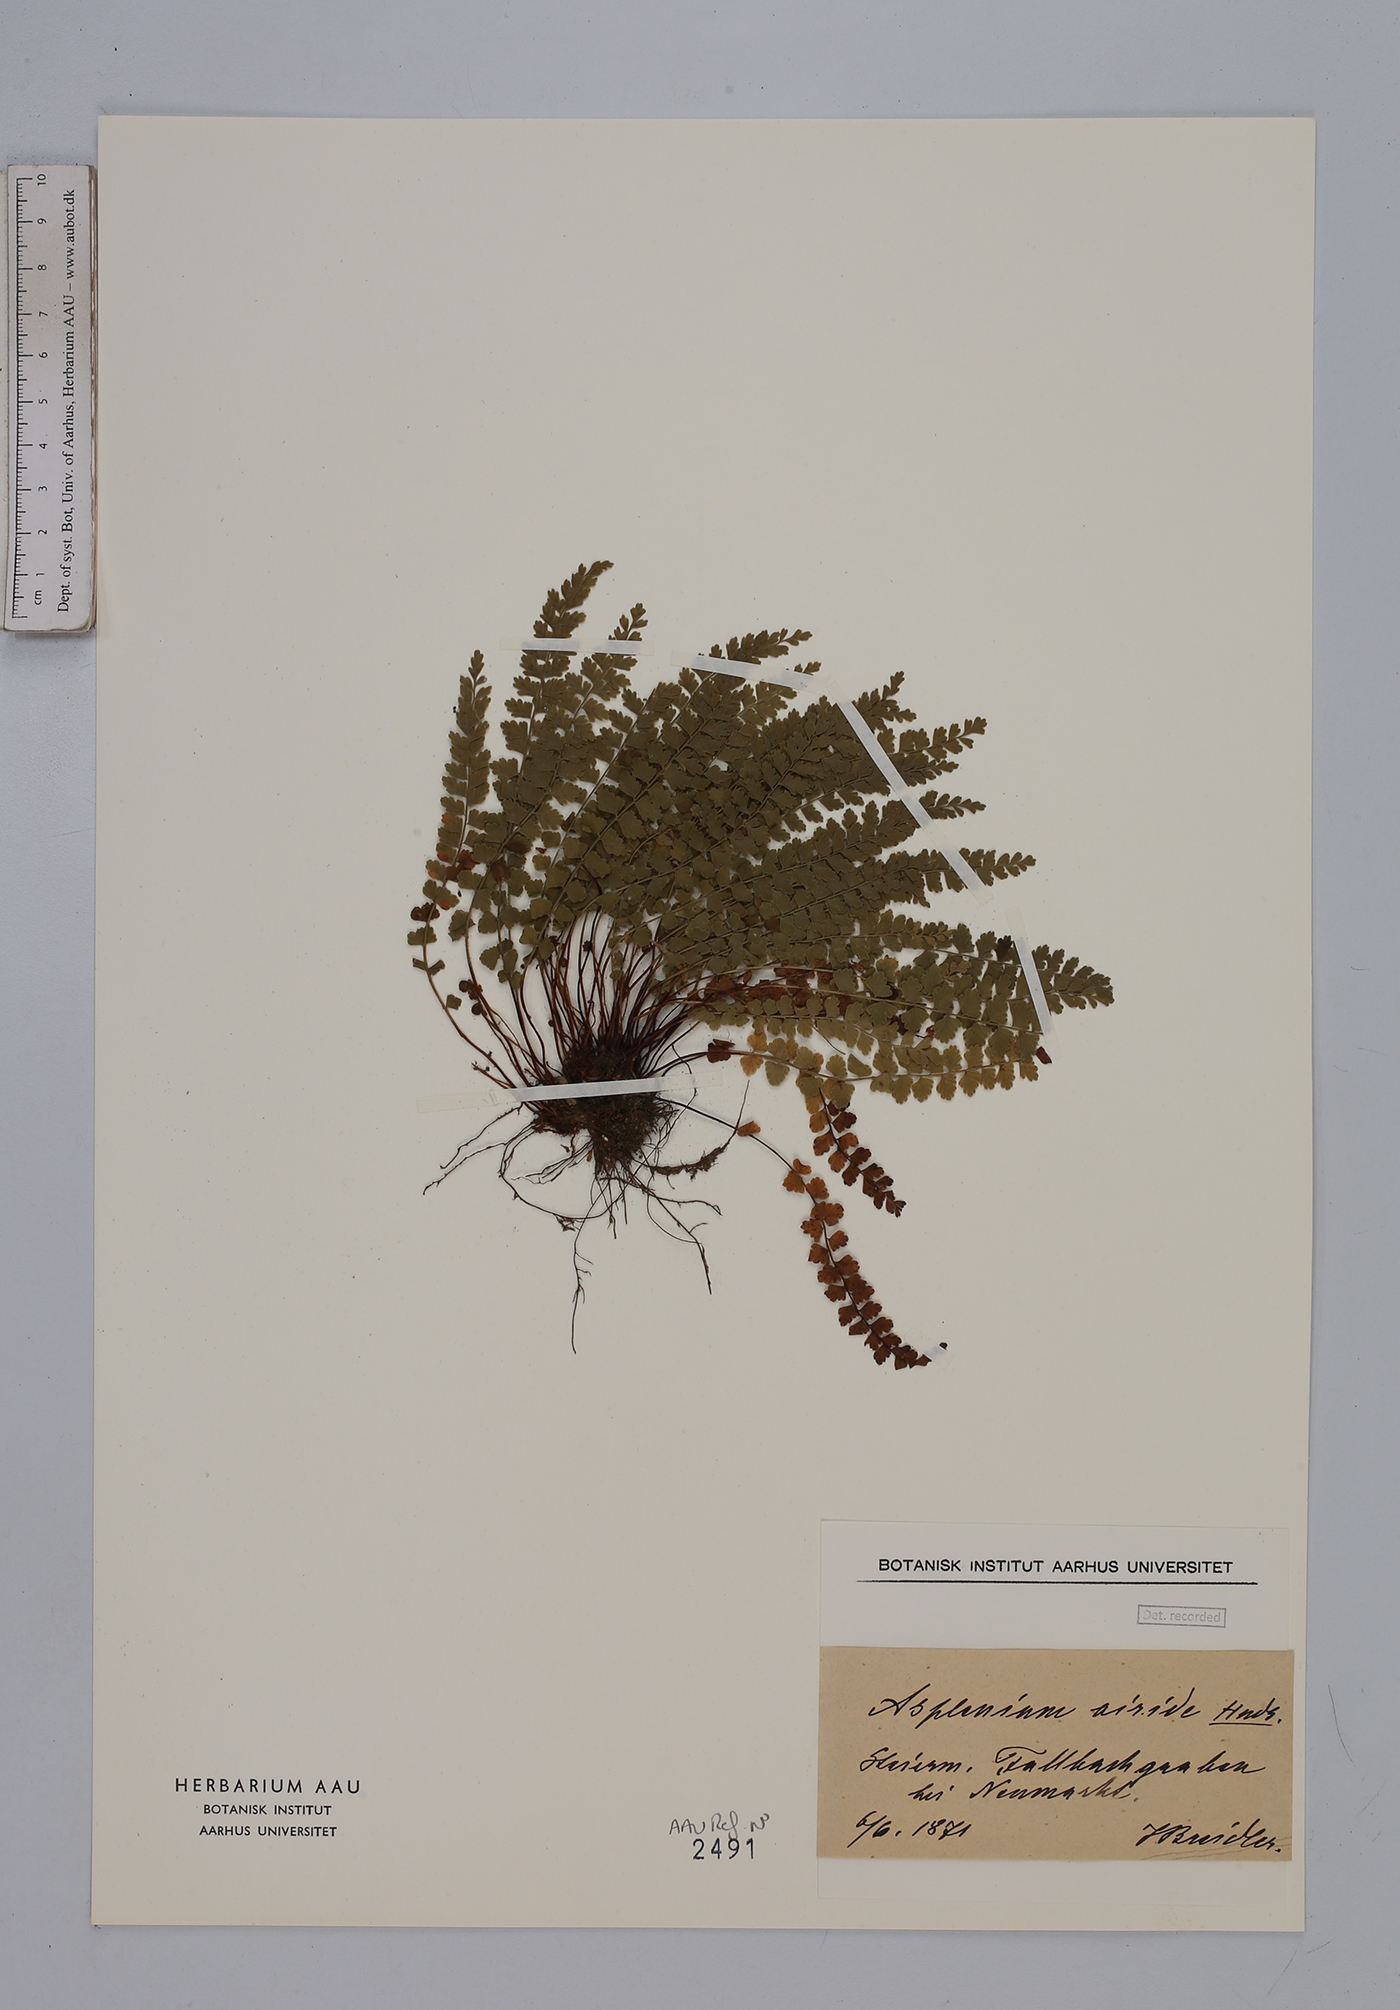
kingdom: Plantae
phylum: Tracheophyta
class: Polypodiopsida
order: Polypodiales
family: Aspleniaceae
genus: Asplenium
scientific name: Asplenium viride
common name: Green spleenwort
